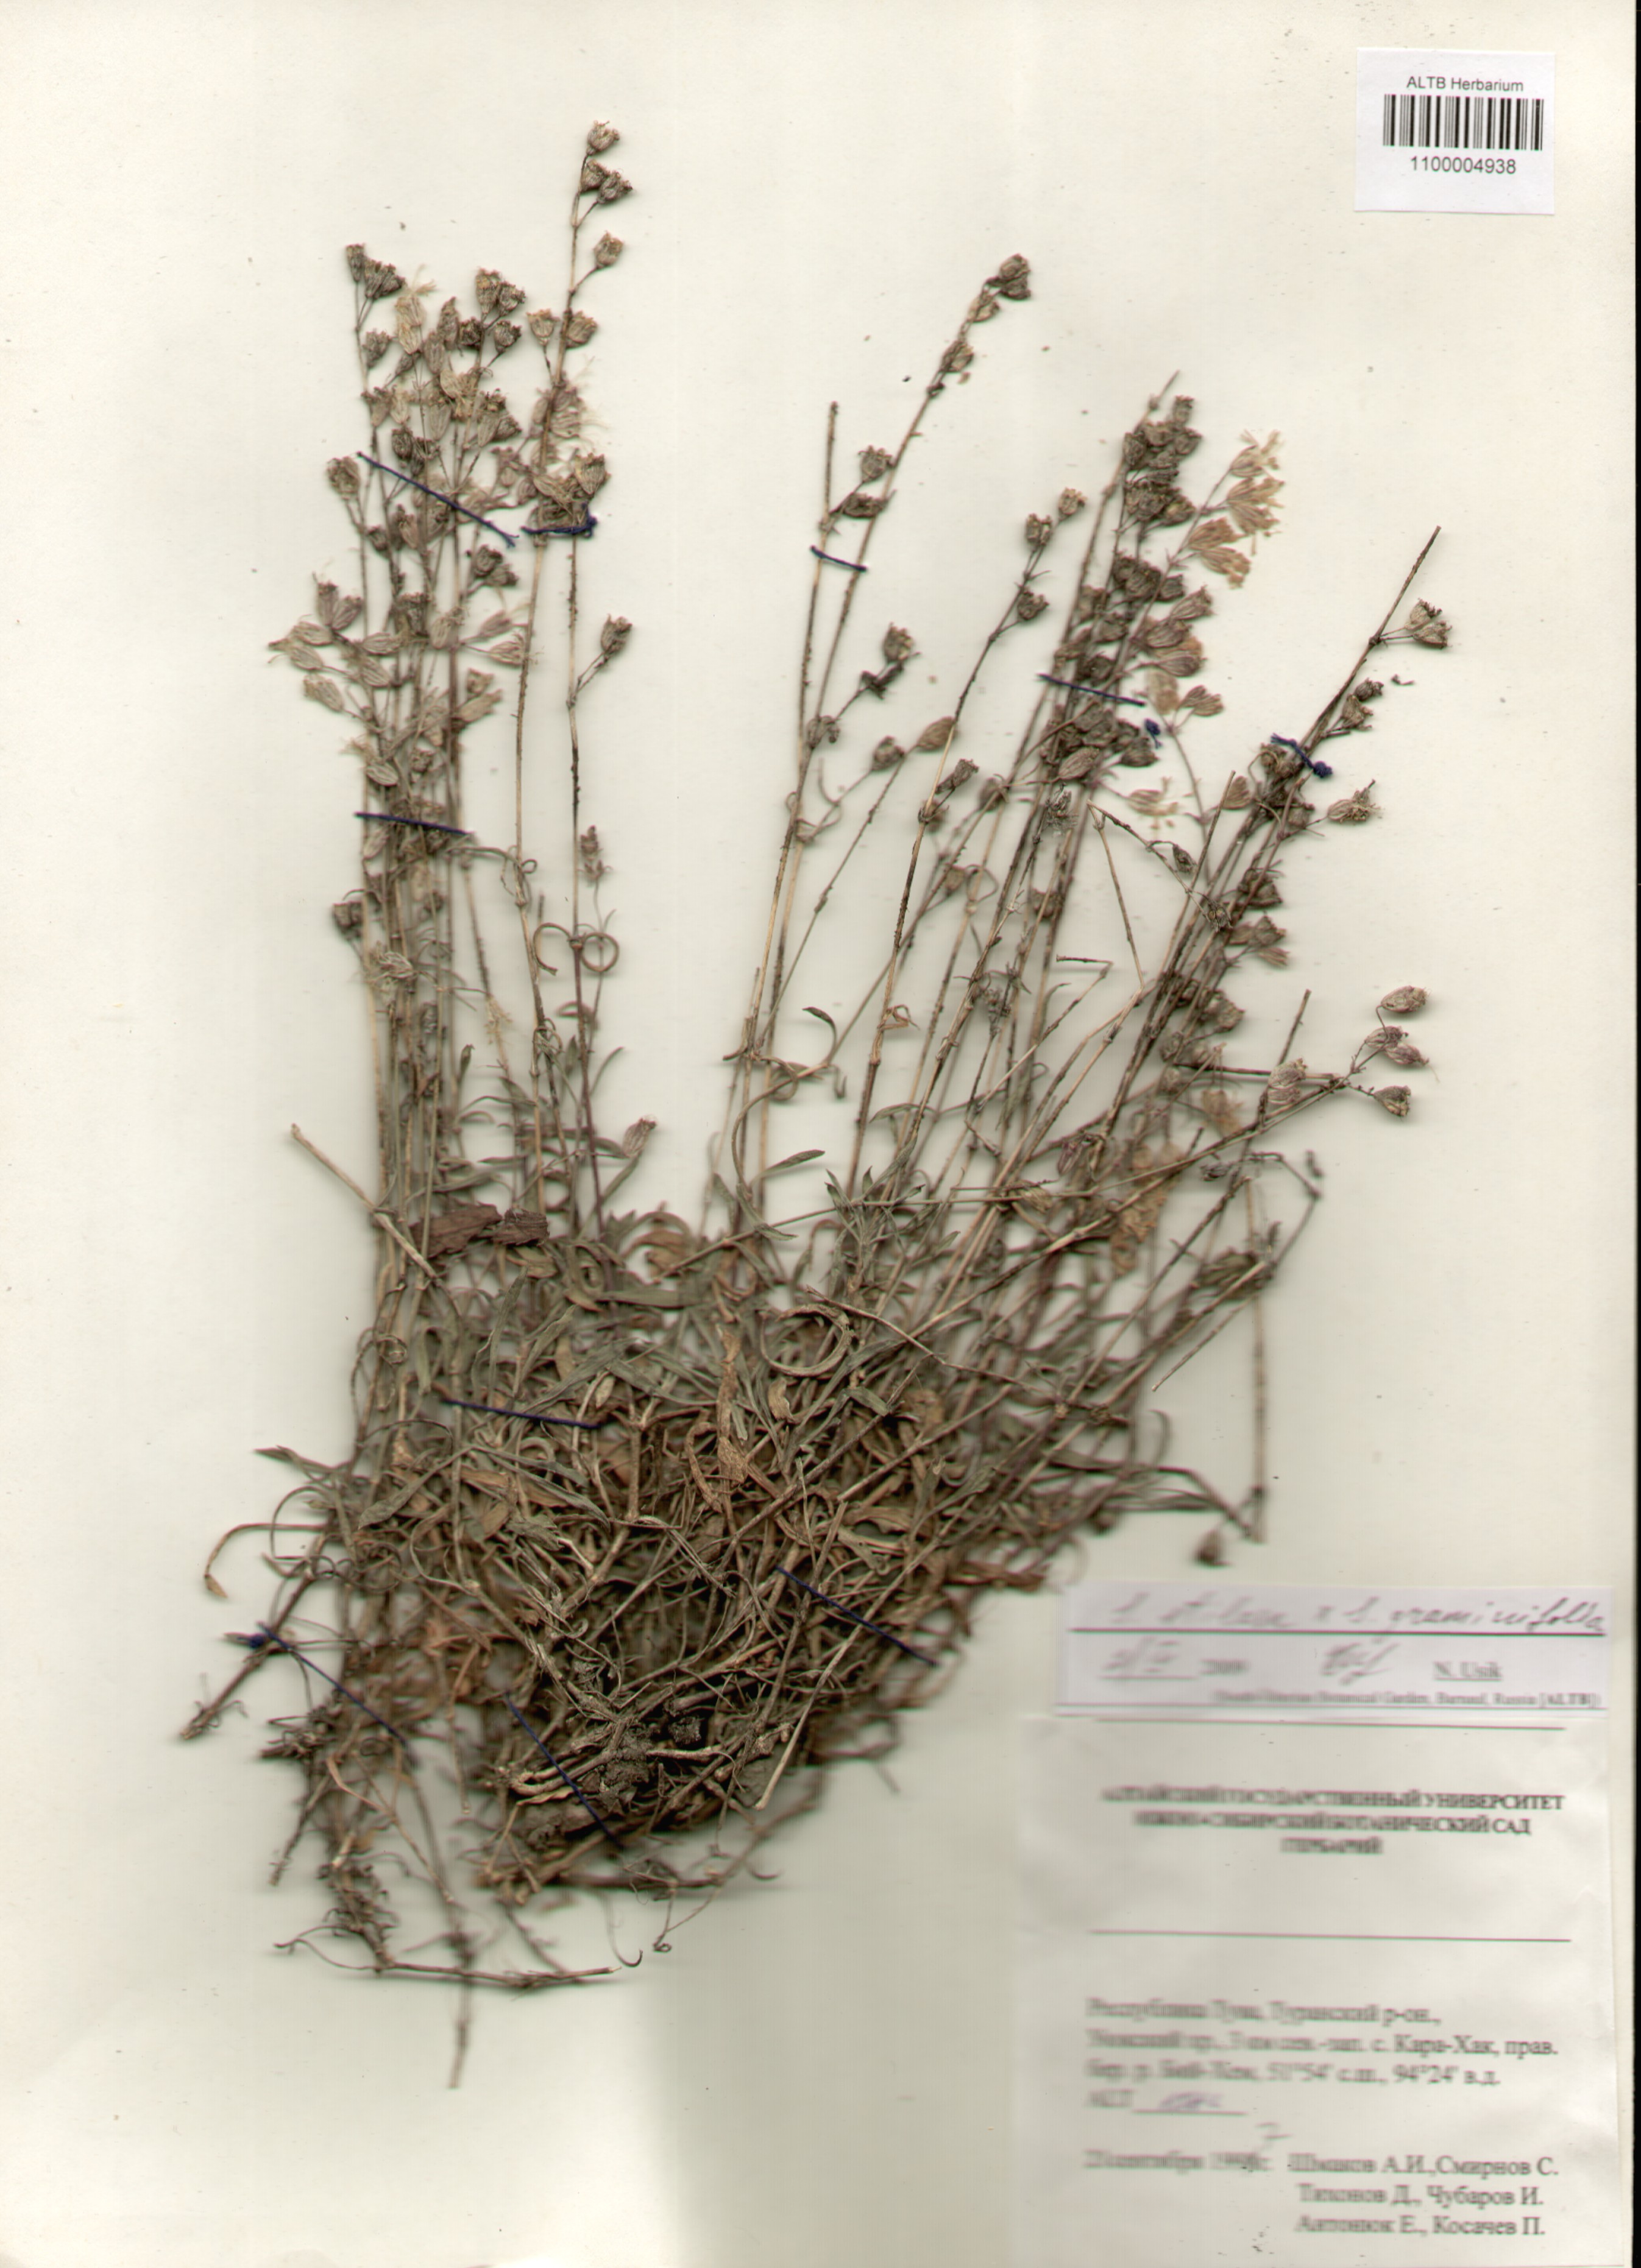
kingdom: Plantae
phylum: Tracheophyta
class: Magnoliopsida
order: Caryophyllales
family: Caryophyllaceae
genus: Silene
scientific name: Silene graminifolia
